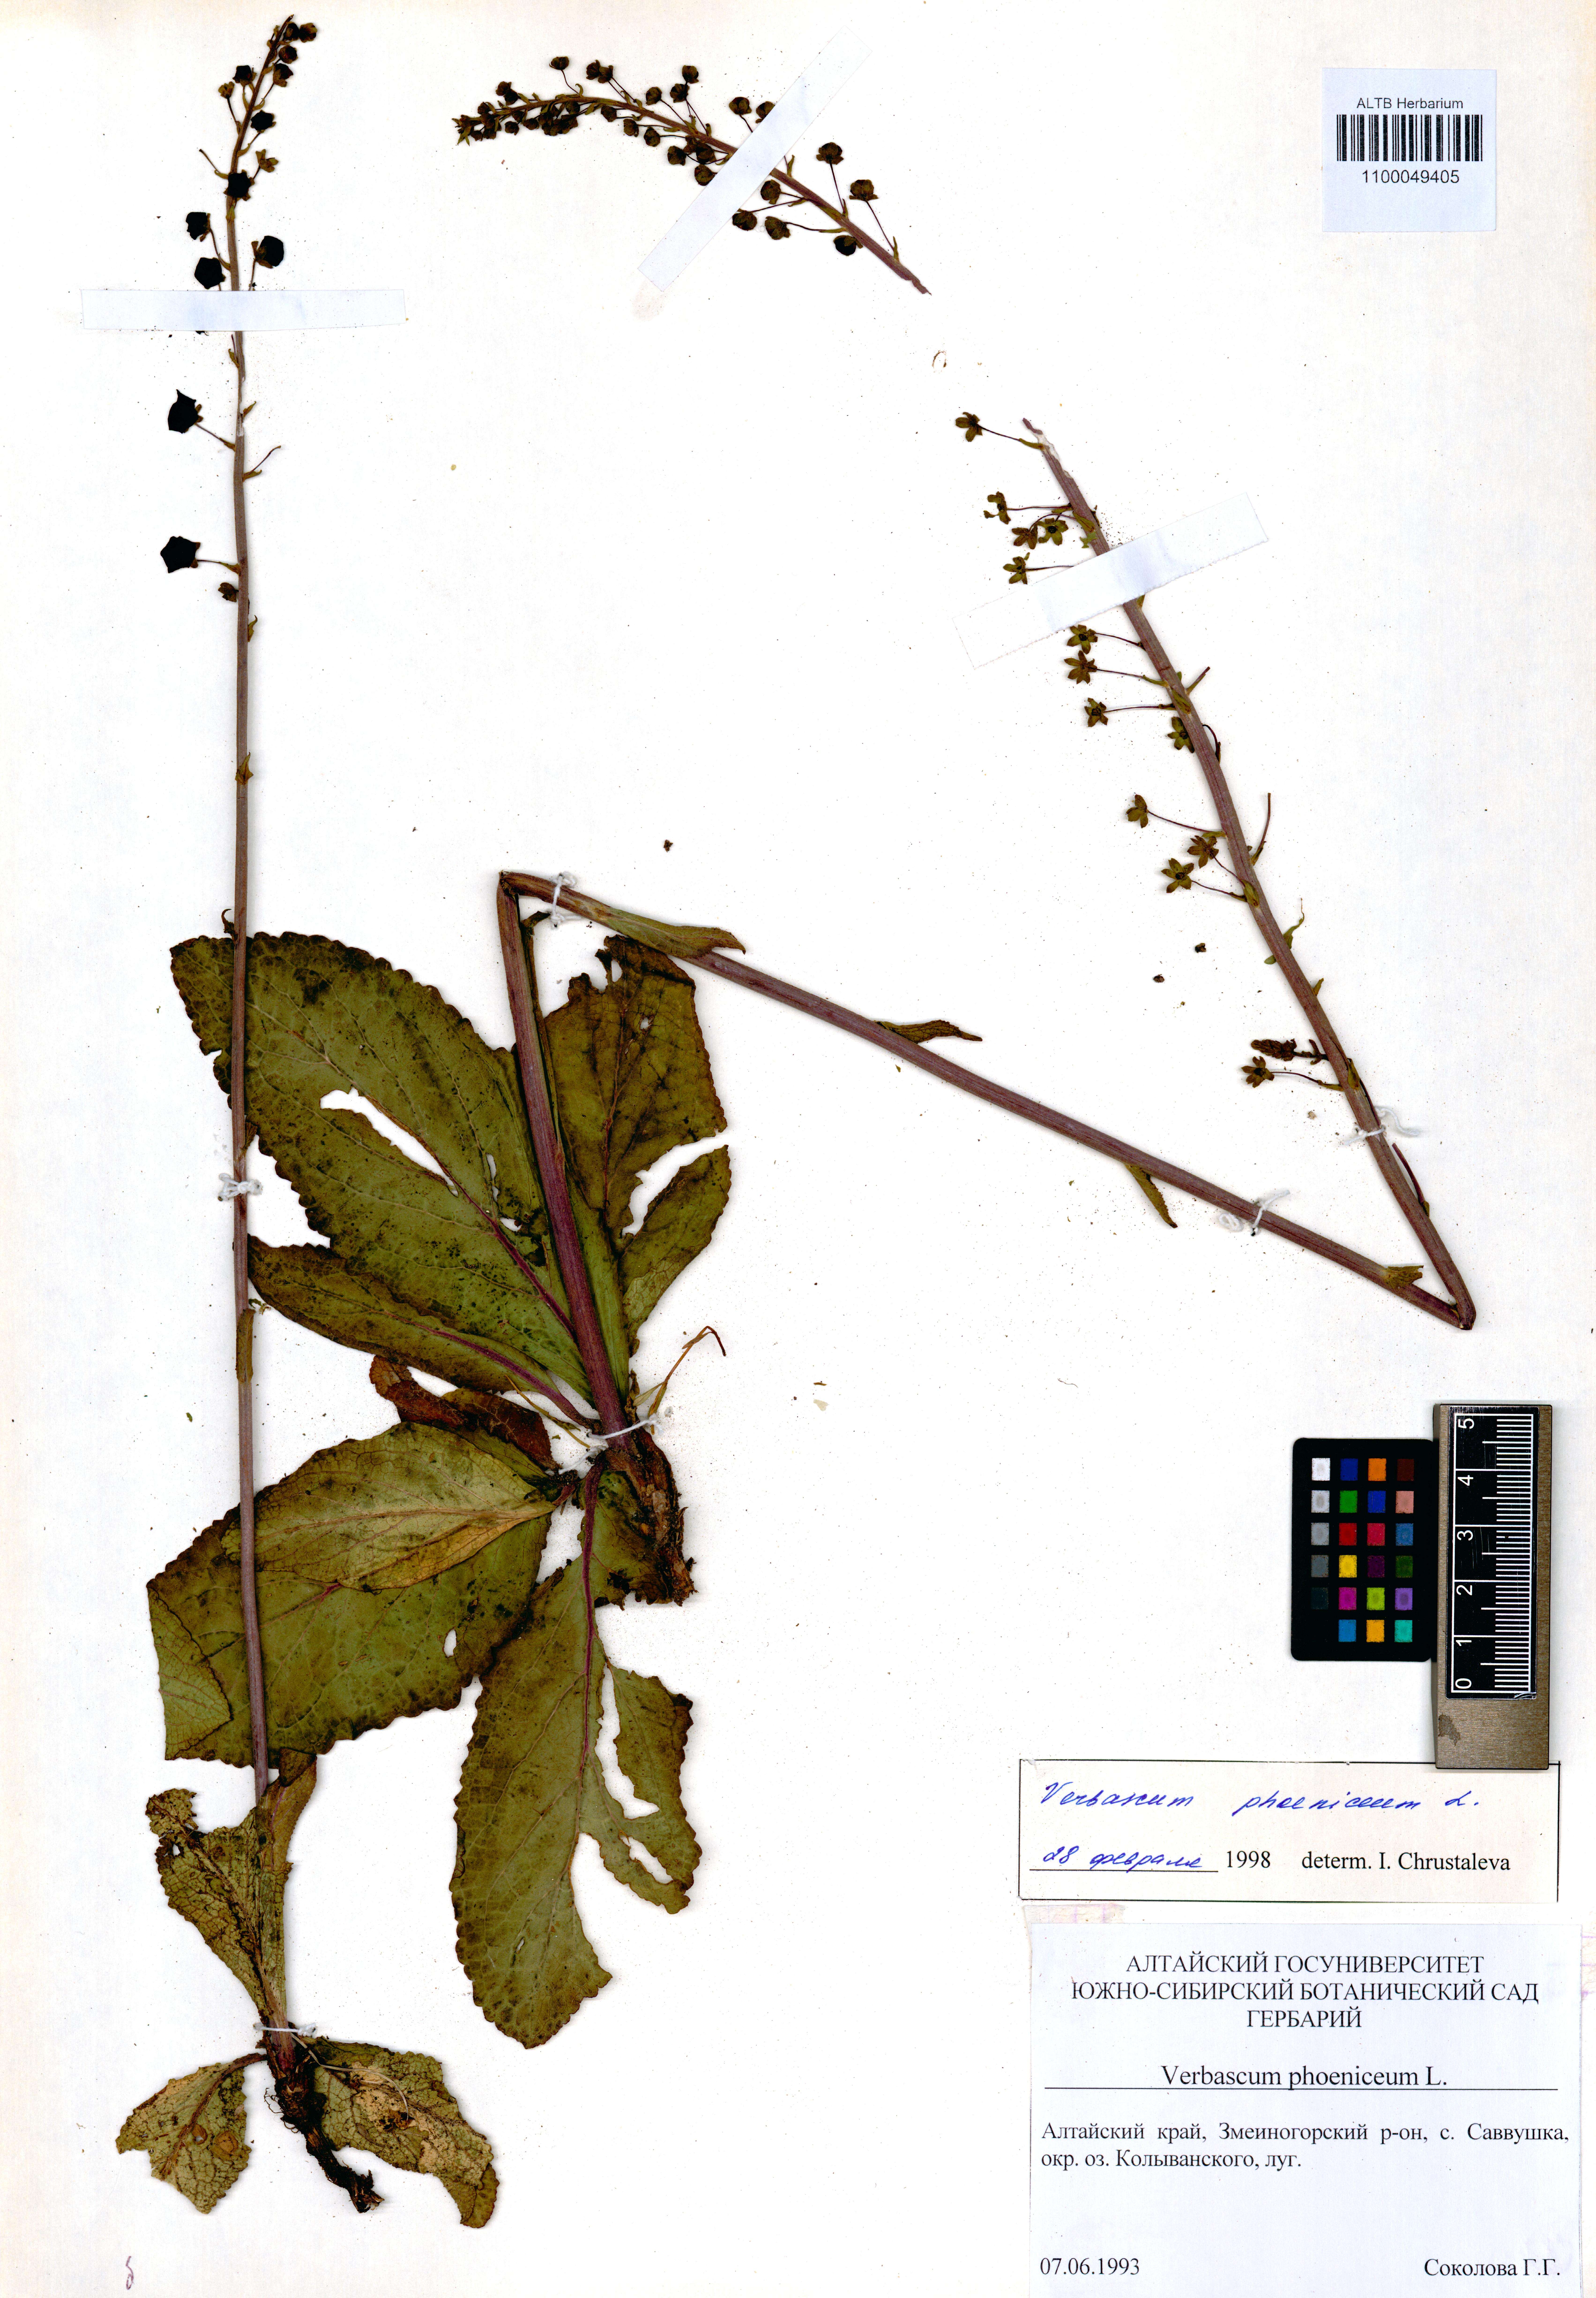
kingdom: Plantae
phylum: Tracheophyta
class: Magnoliopsida
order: Lamiales
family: Scrophulariaceae
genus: Verbascum
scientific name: Verbascum phoeniceum
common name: Purple mullein
